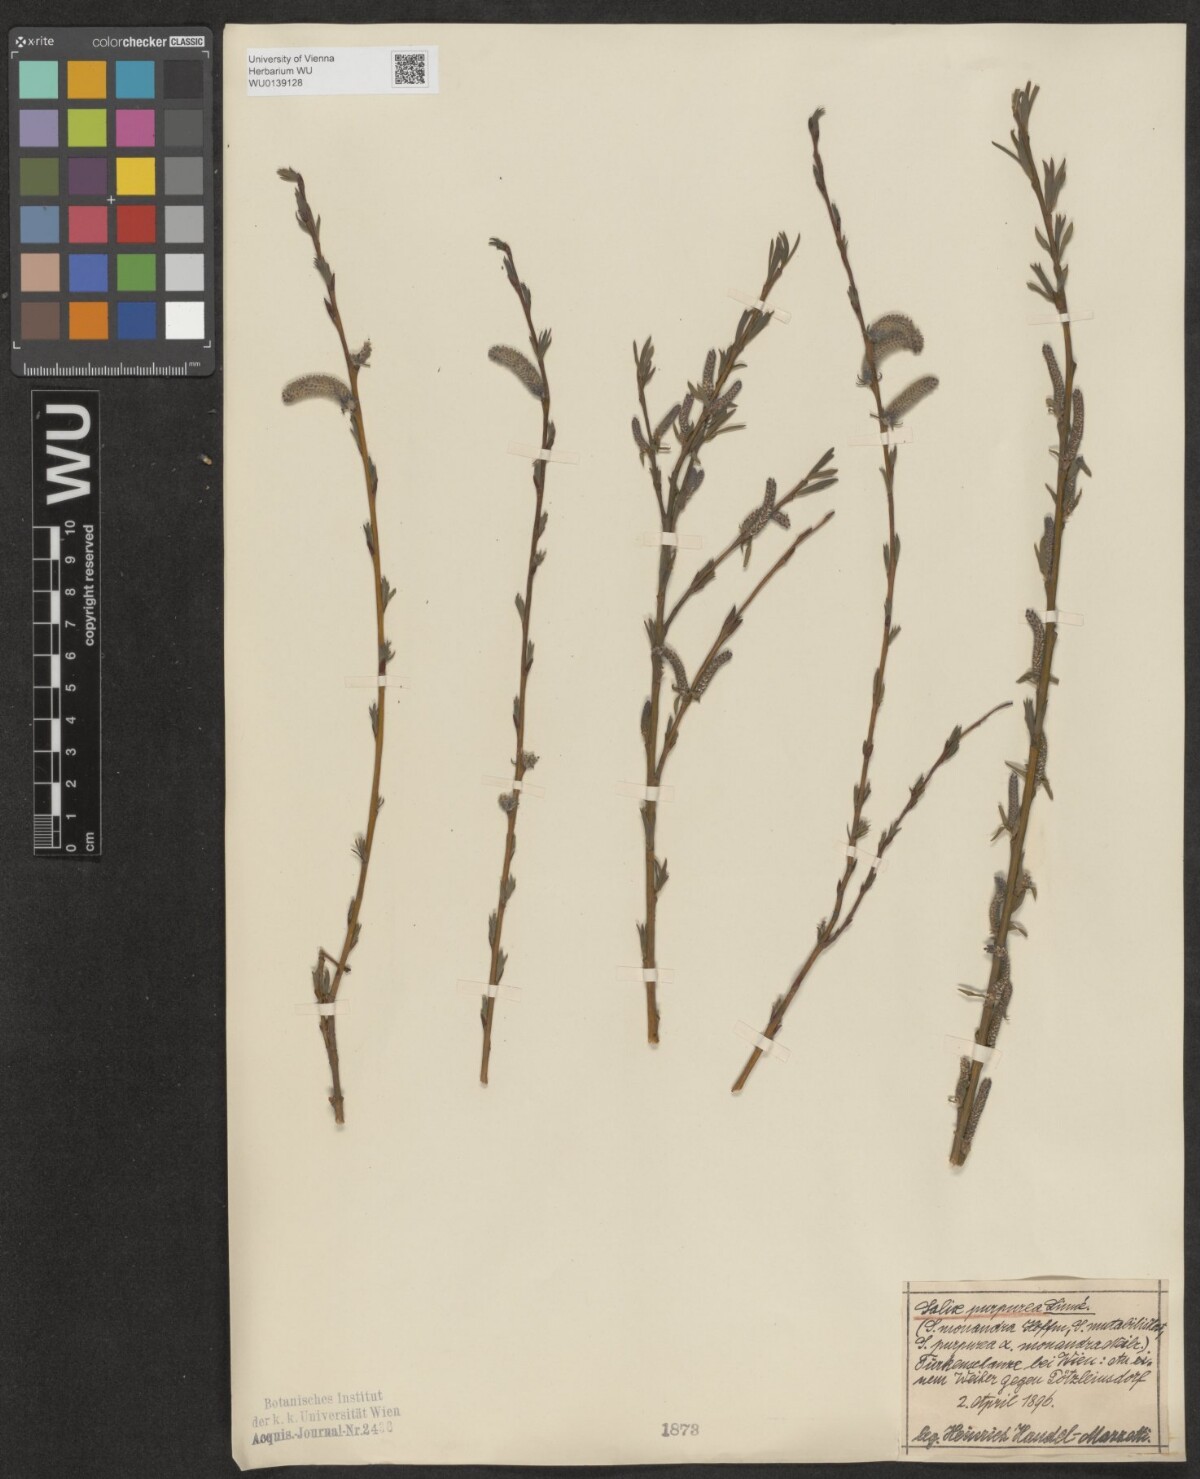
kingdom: Plantae
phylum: Tracheophyta
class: Magnoliopsida
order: Malpighiales
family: Salicaceae
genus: Salix
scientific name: Salix purpurea
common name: Purple willow
